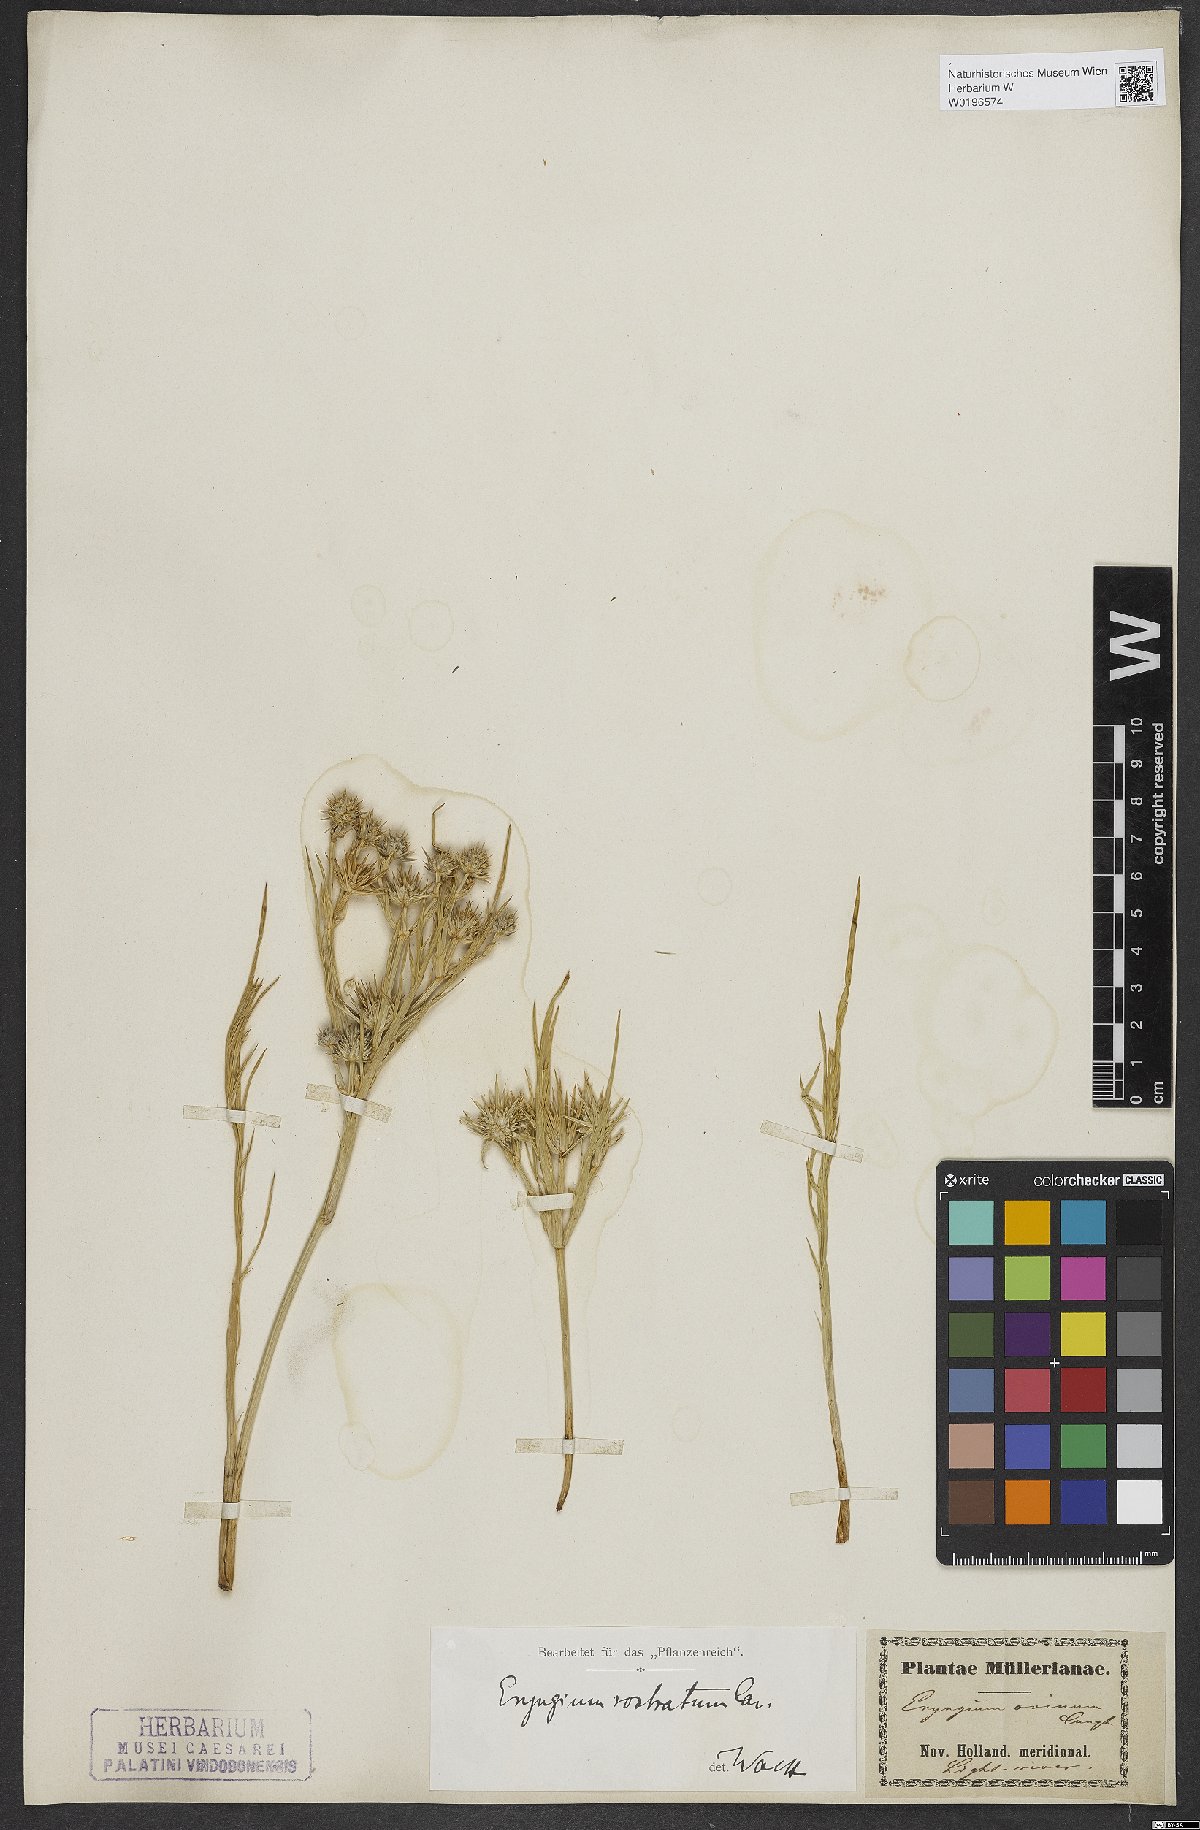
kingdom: Plantae
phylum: Tracheophyta
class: Magnoliopsida
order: Apiales
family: Apiaceae
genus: Eryngium
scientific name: Eryngium rostratum
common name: Blue eryngo
